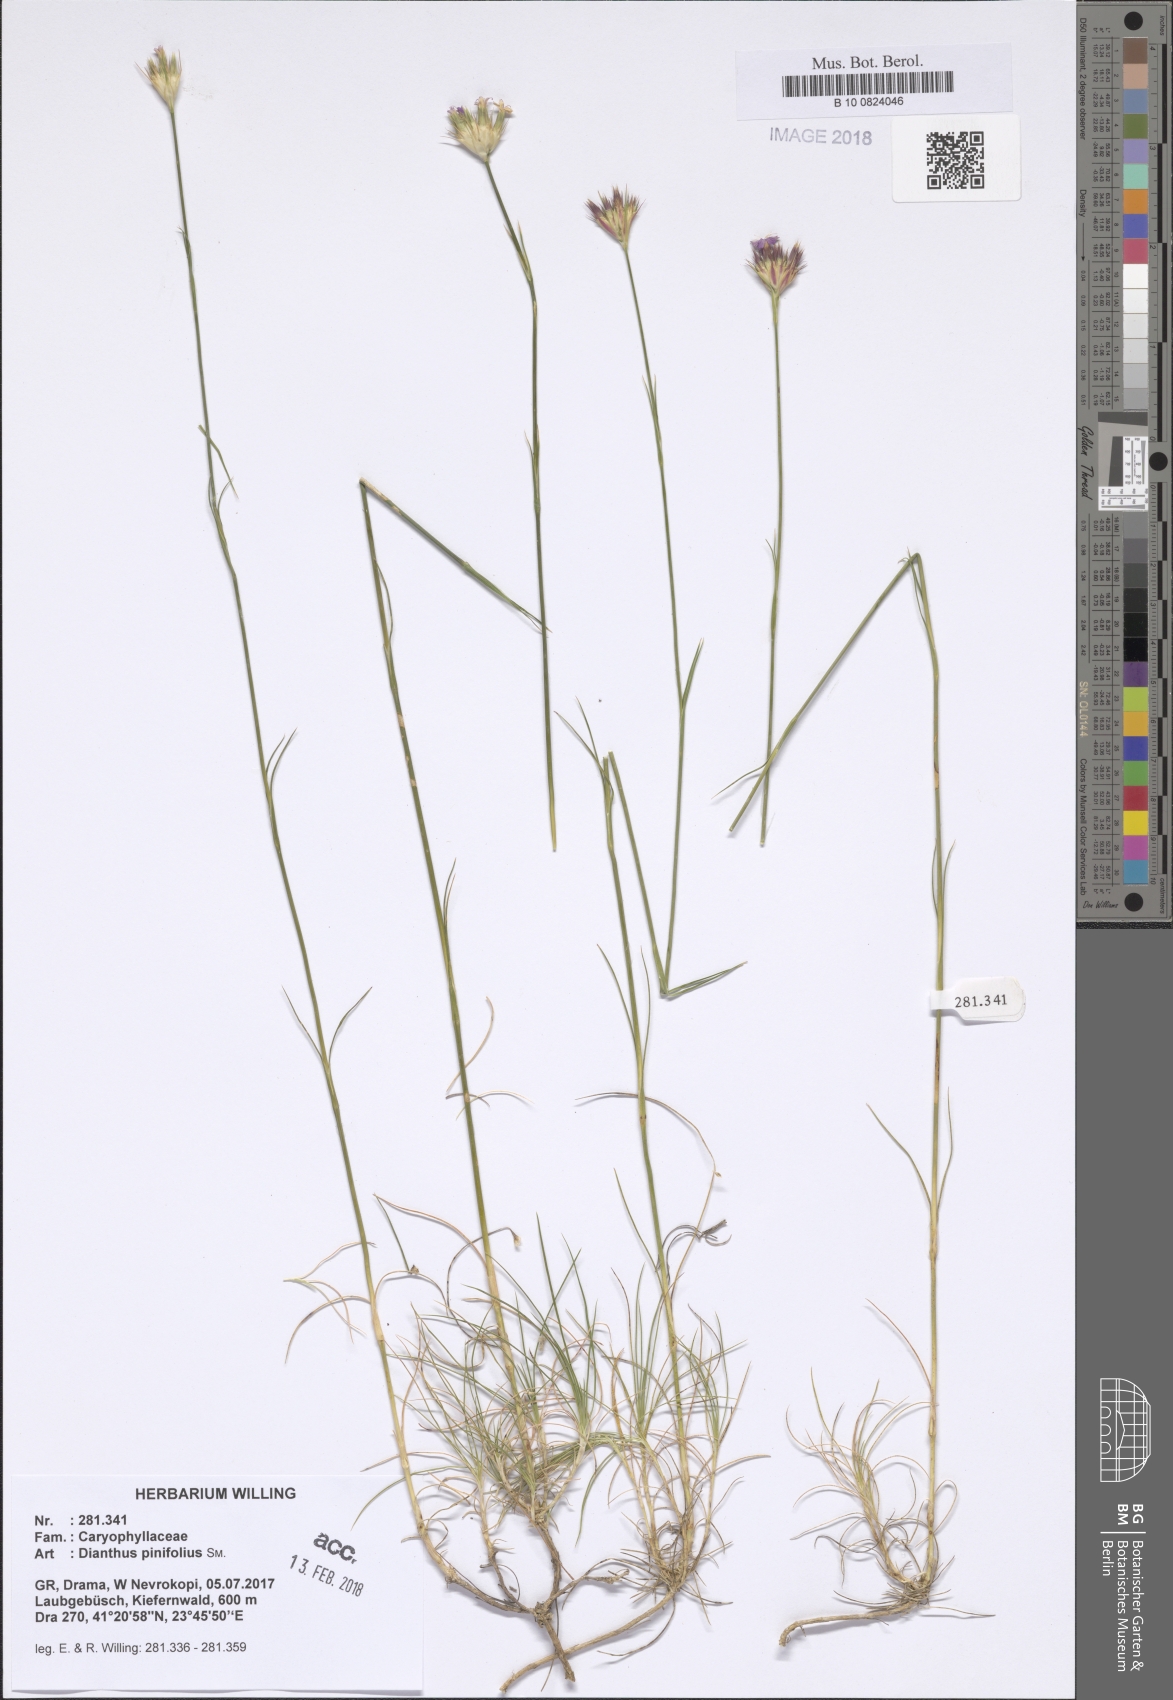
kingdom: Plantae
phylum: Tracheophyta
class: Magnoliopsida
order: Caryophyllales
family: Caryophyllaceae
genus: Dianthus
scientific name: Dianthus pinifolius
